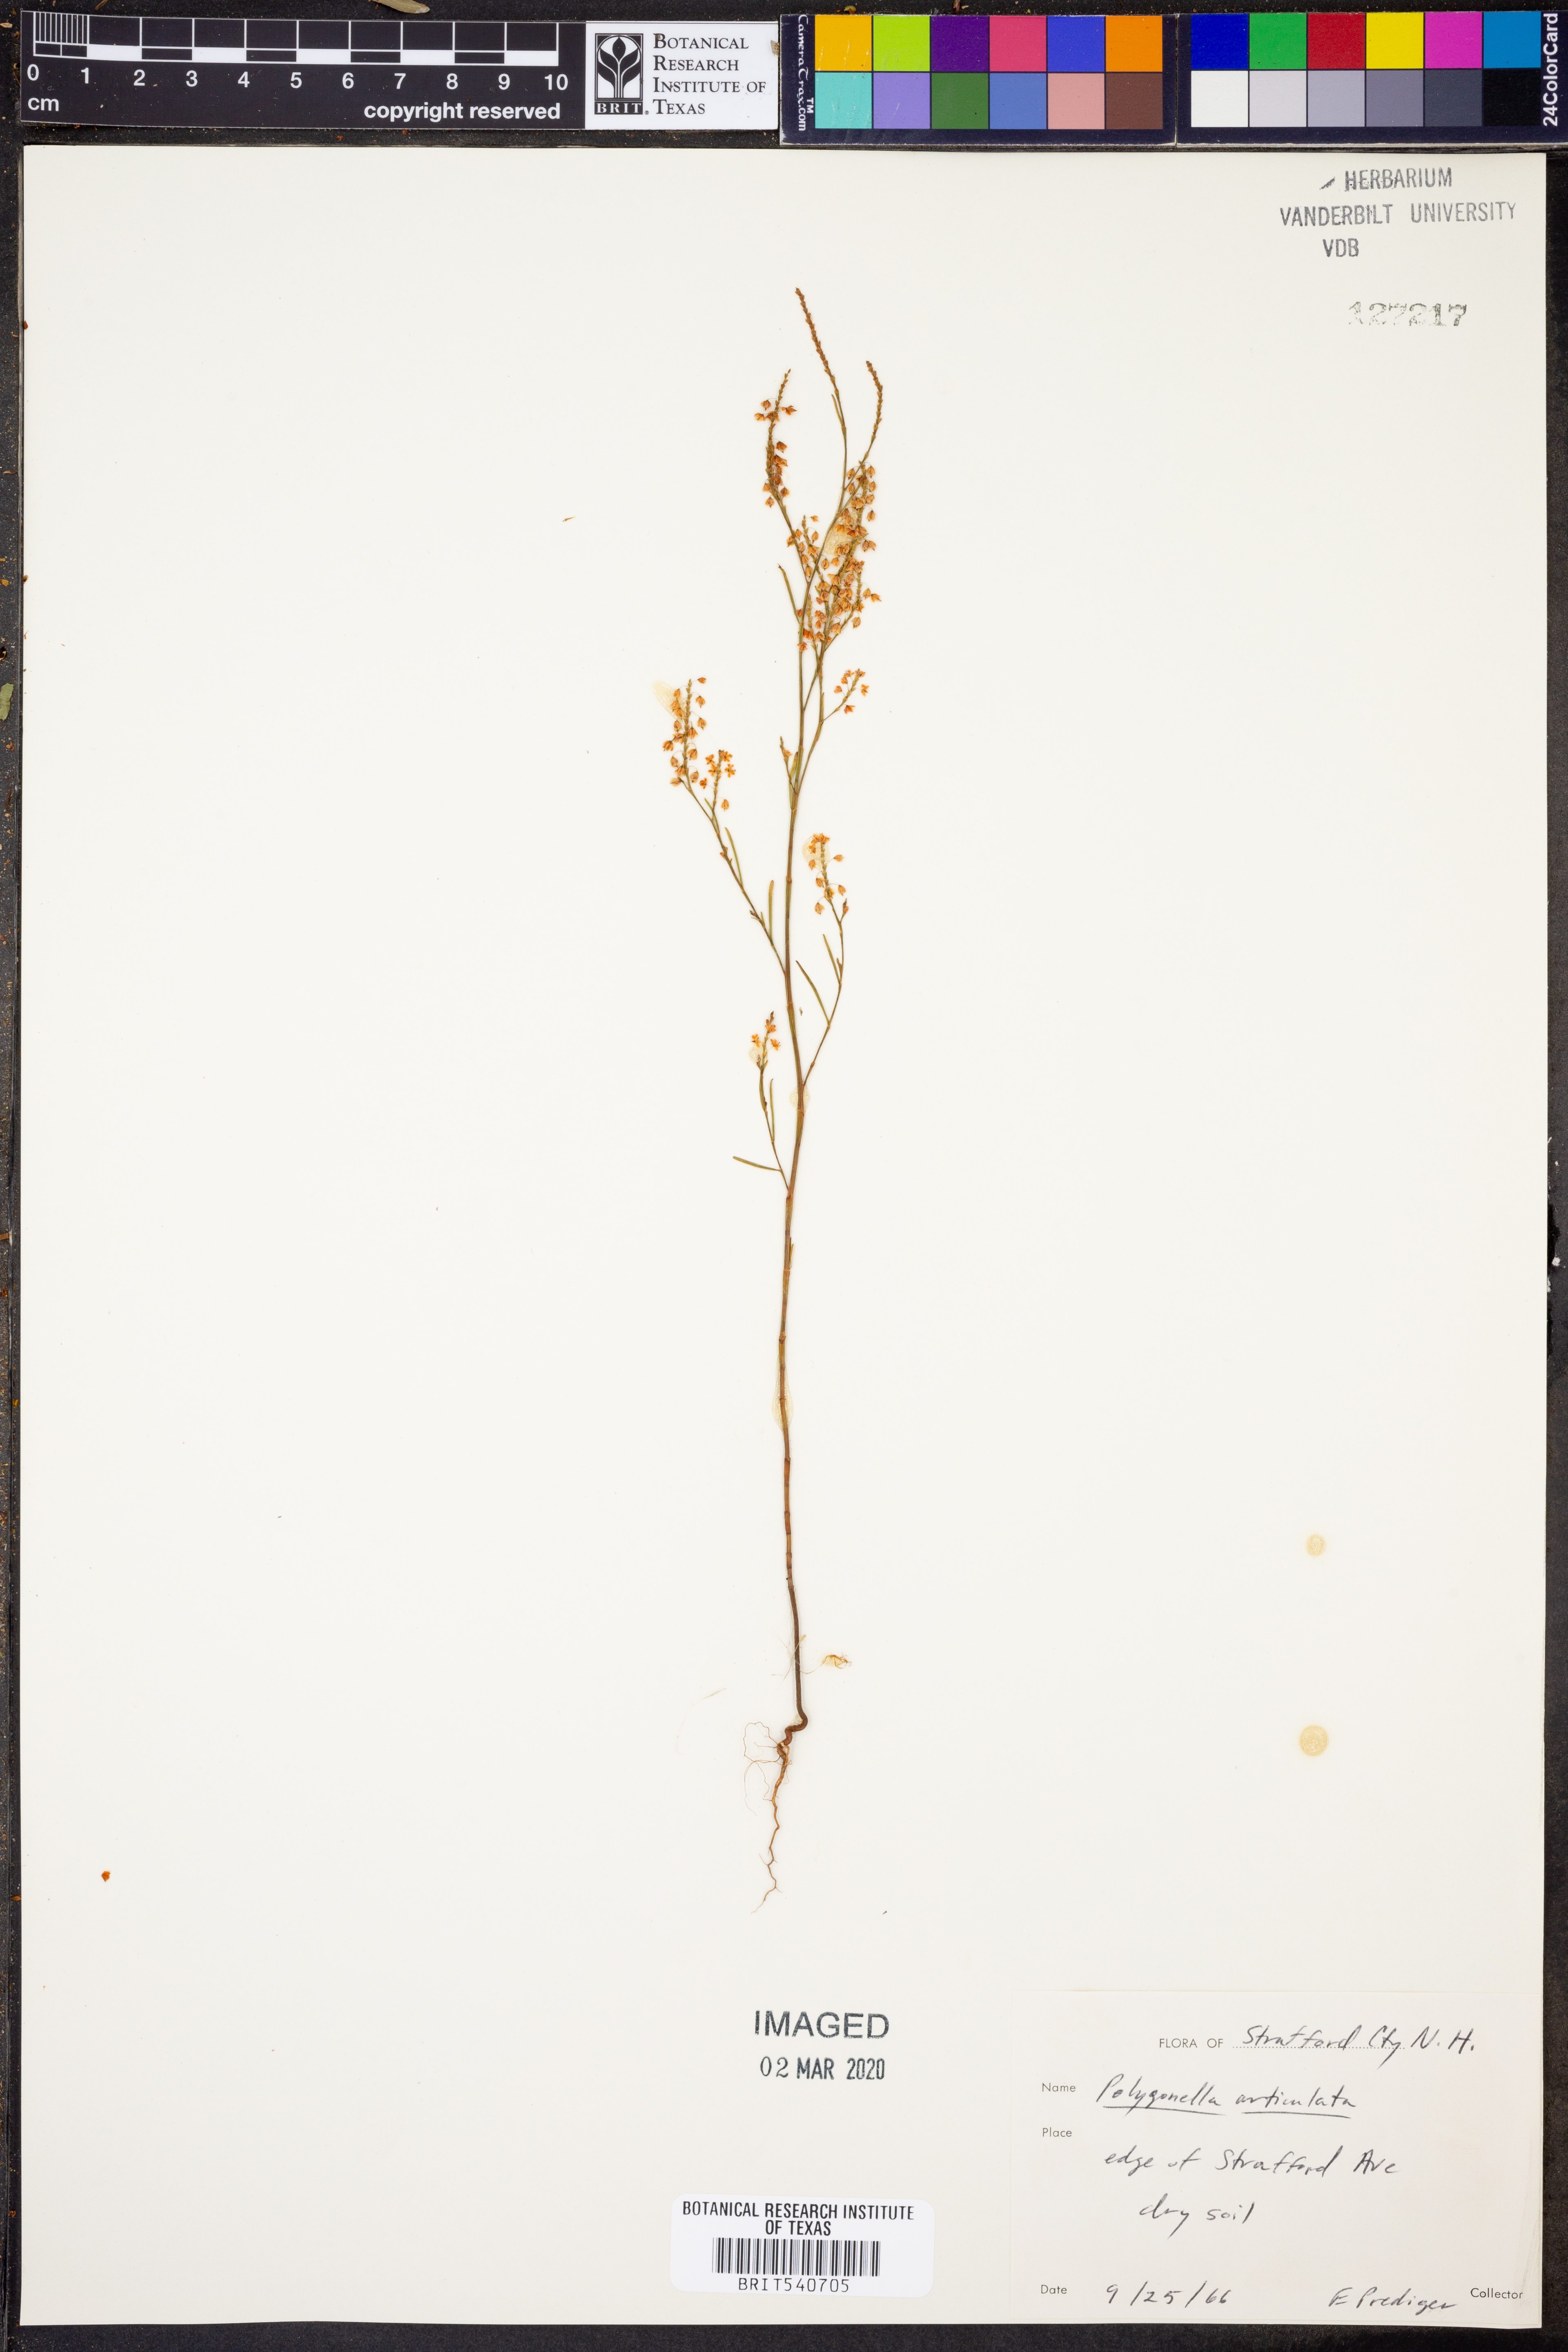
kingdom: Plantae
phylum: Tracheophyta
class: Magnoliopsida
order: Caryophyllales
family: Polygonaceae
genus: Polygonella
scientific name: Polygonella articulata
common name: Coastal jointweed
